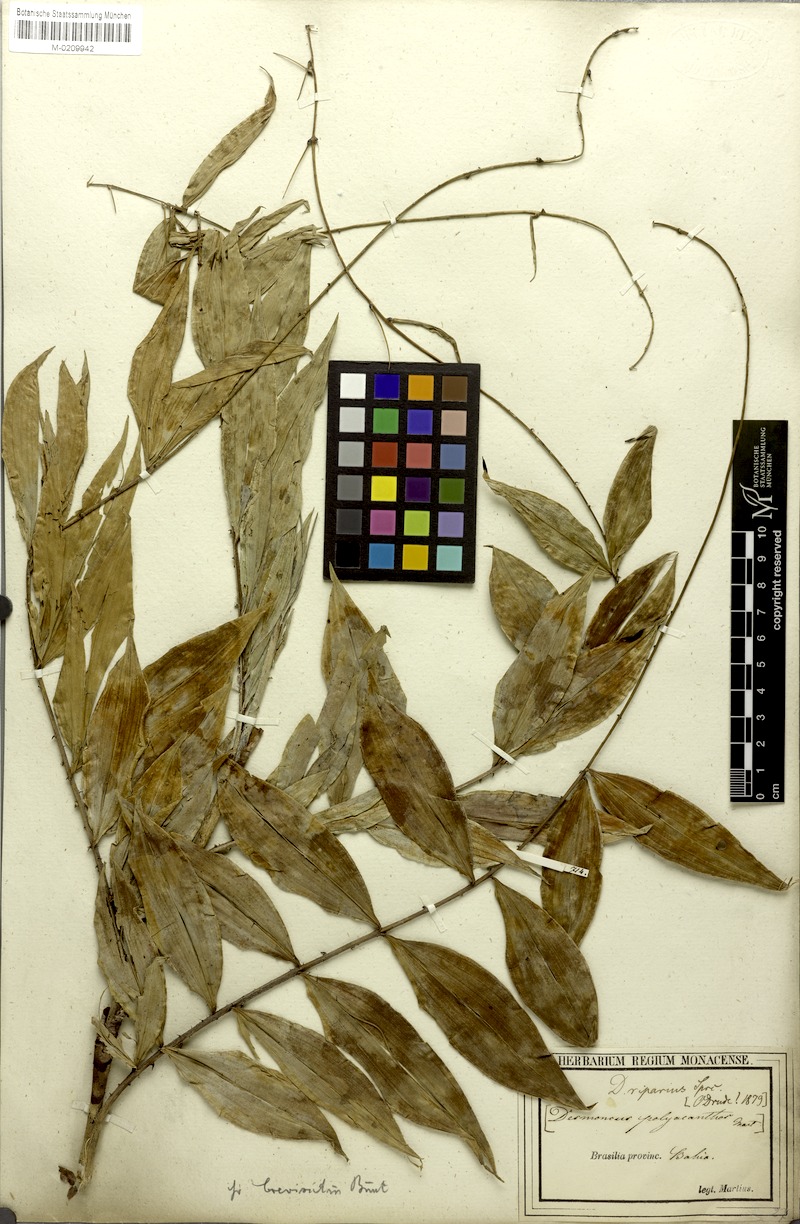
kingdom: Plantae
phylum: Tracheophyta
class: Liliopsida
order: Arecales
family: Arecaceae
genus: Desmoncus
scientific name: Desmoncus polyacanthos
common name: Suriname bramble palm
